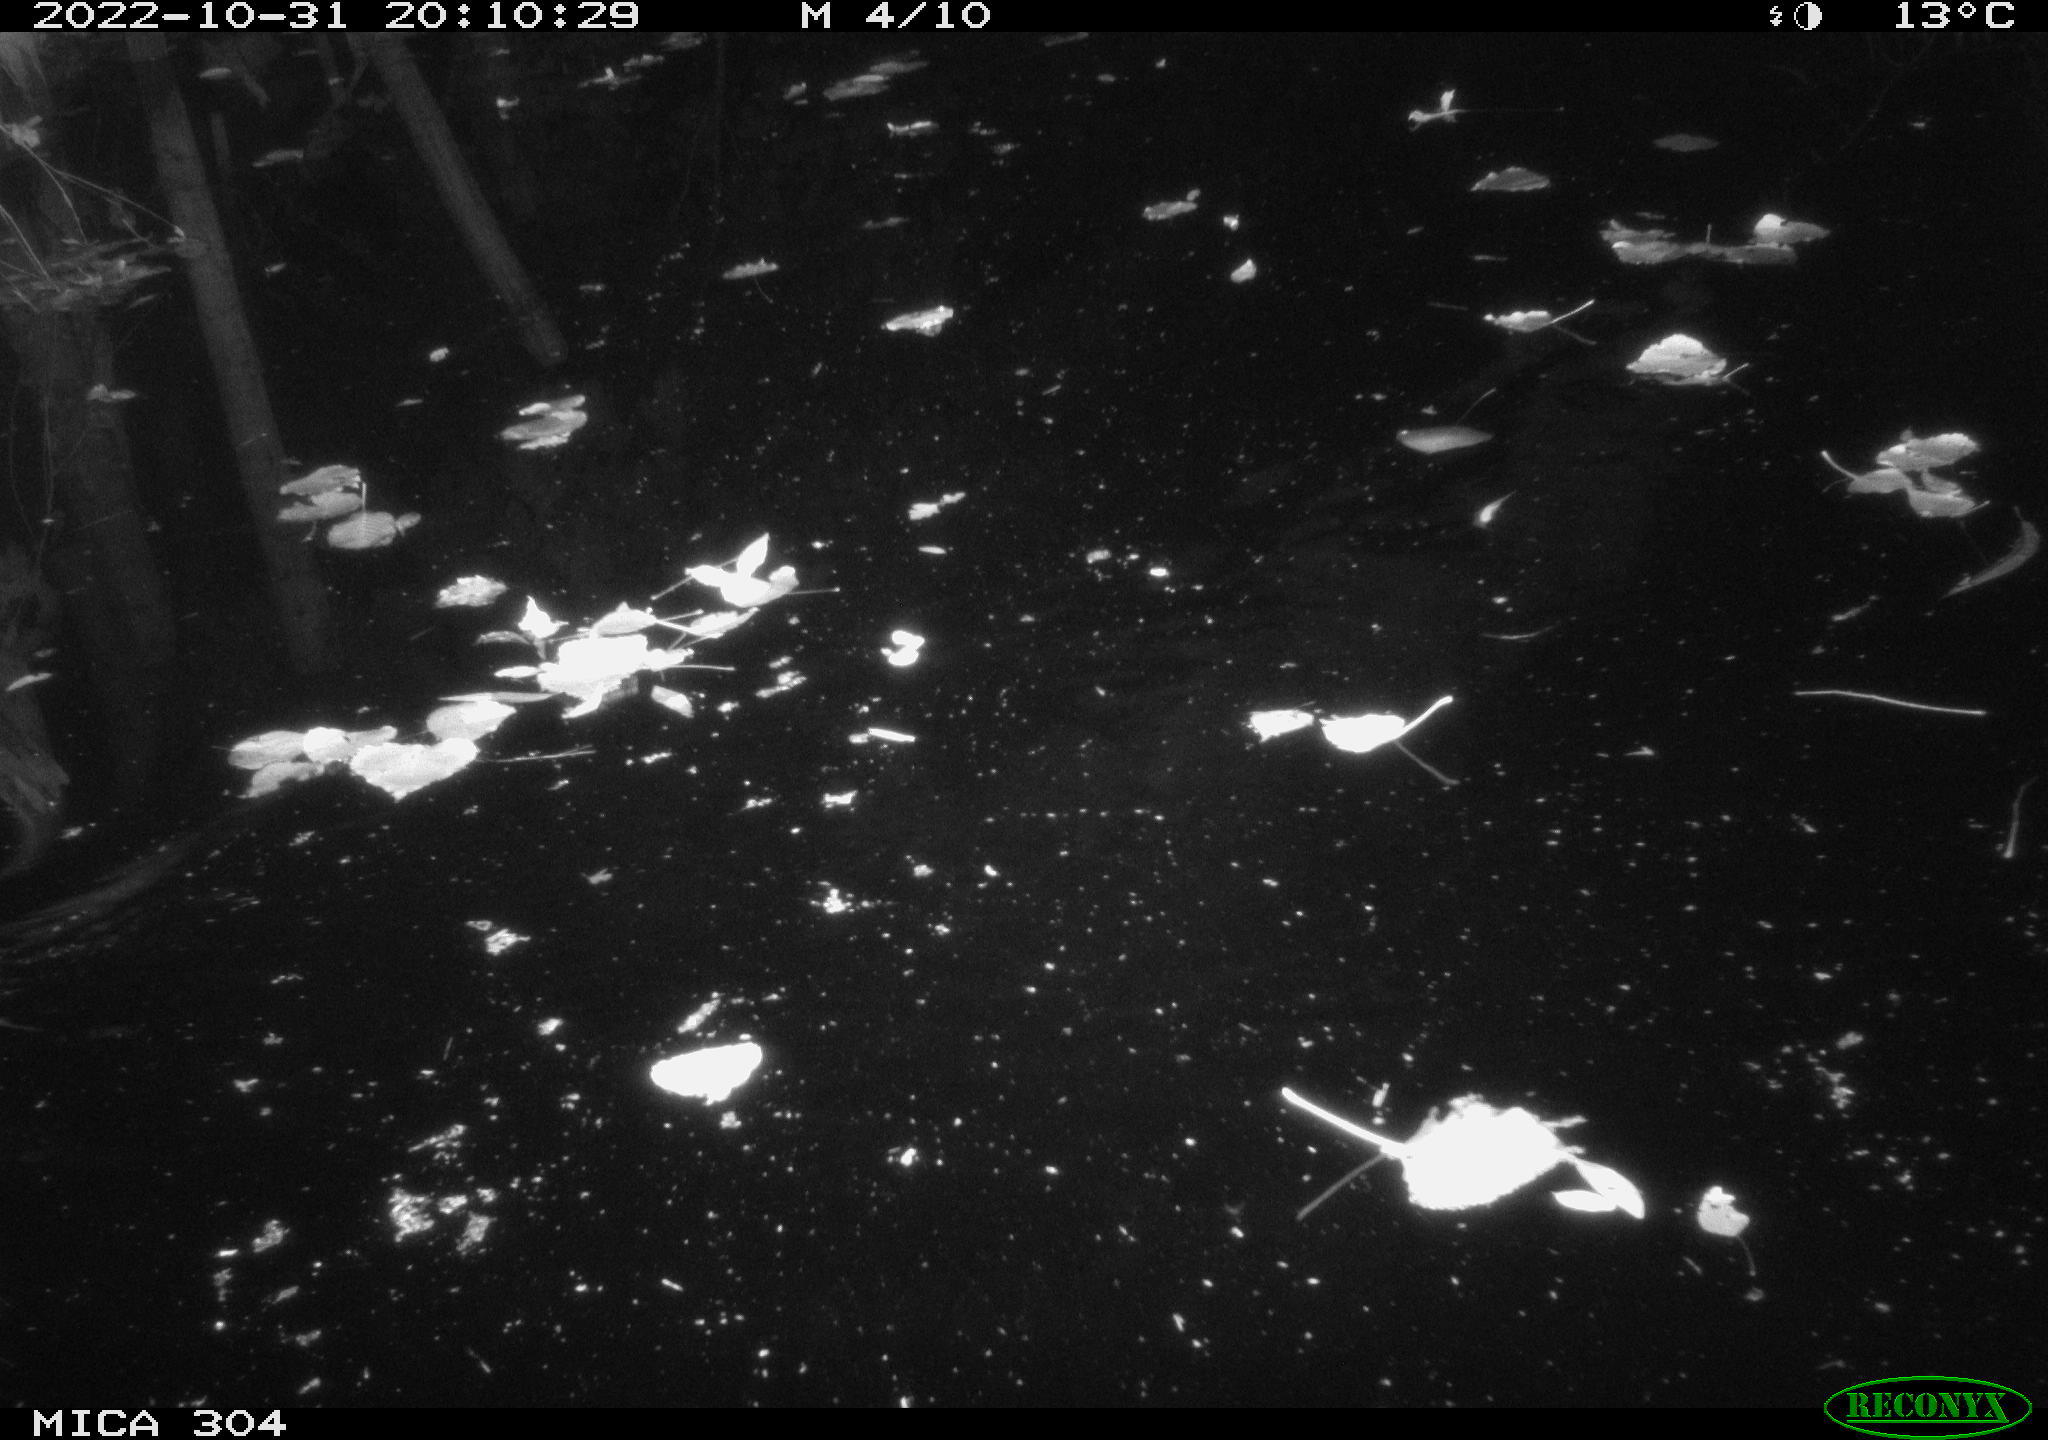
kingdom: Animalia
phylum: Chordata
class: Mammalia
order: Rodentia
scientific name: Rodentia
